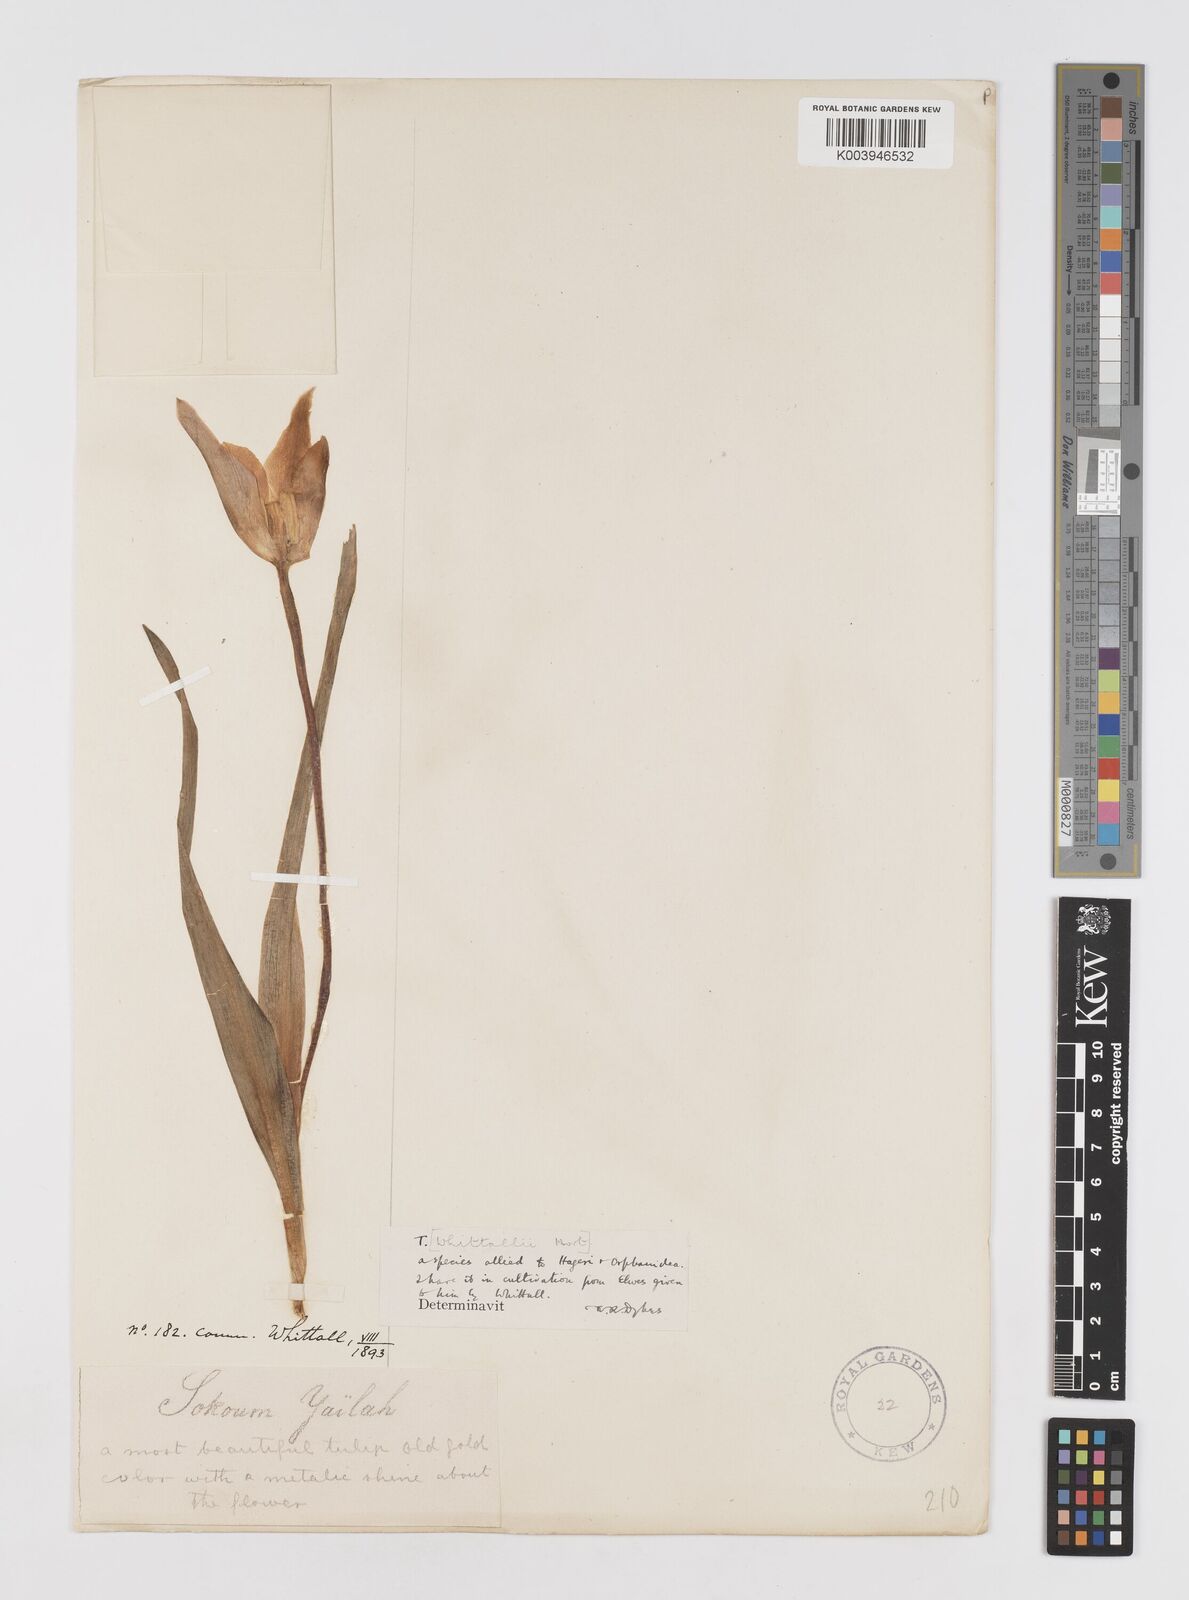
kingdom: Plantae
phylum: Tracheophyta
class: Liliopsida
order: Liliales
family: Liliaceae
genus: Tulipa
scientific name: Tulipa
